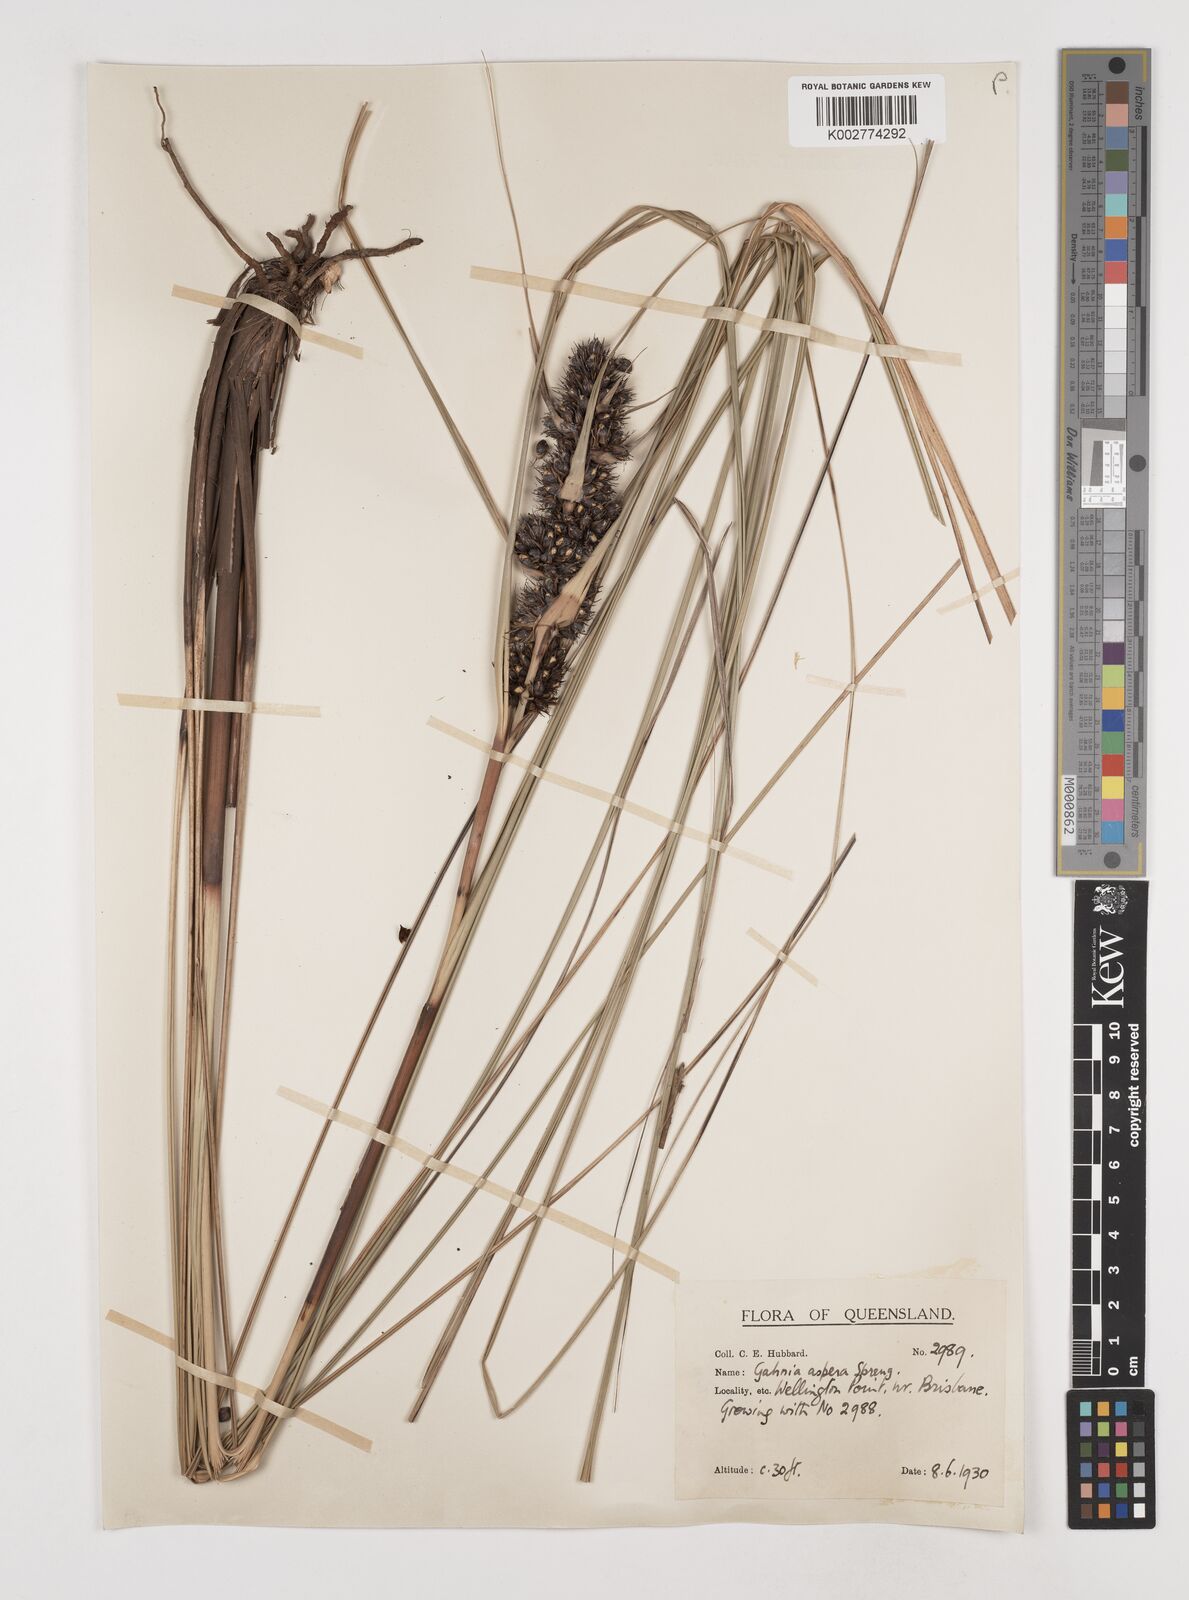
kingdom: Plantae
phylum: Tracheophyta
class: Liliopsida
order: Poales
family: Cyperaceae
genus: Gahnia
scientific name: Gahnia aspera
